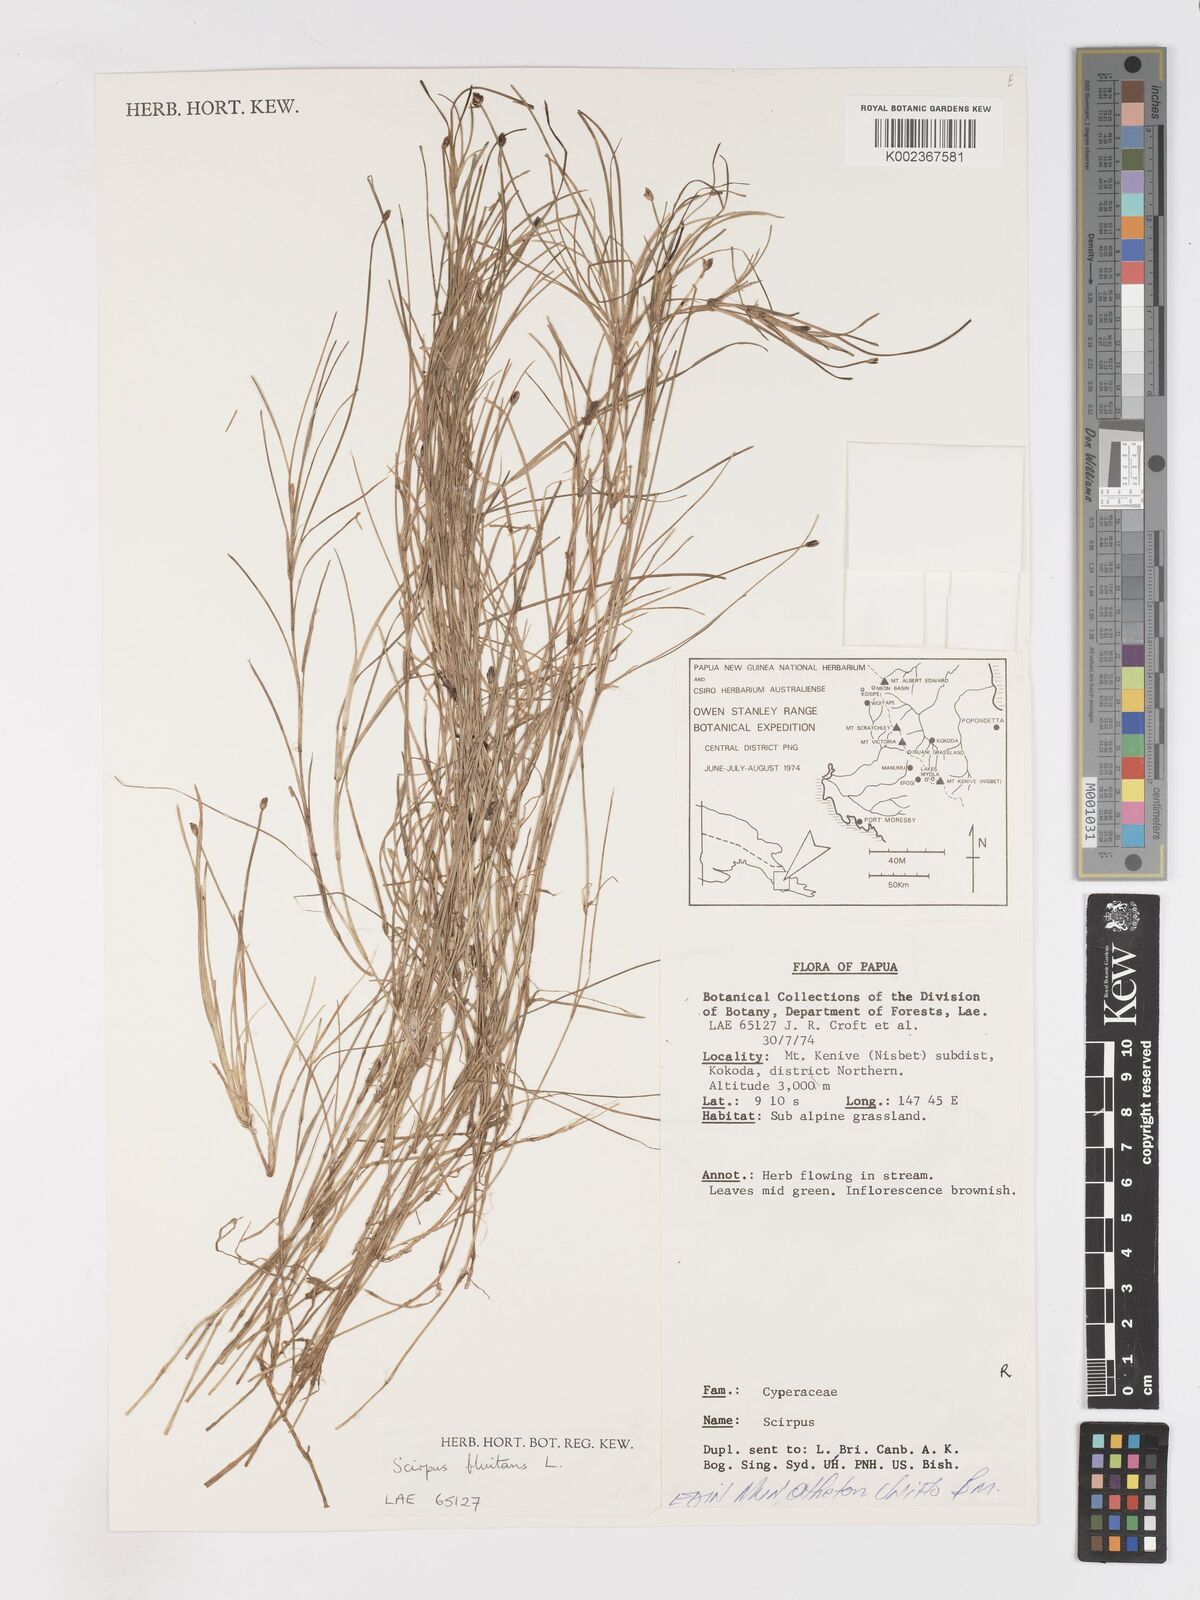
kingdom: Plantae
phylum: Tracheophyta
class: Liliopsida
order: Poales
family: Cyperaceae
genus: Isolepis
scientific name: Isolepis fluitans
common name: Floating club-rush
